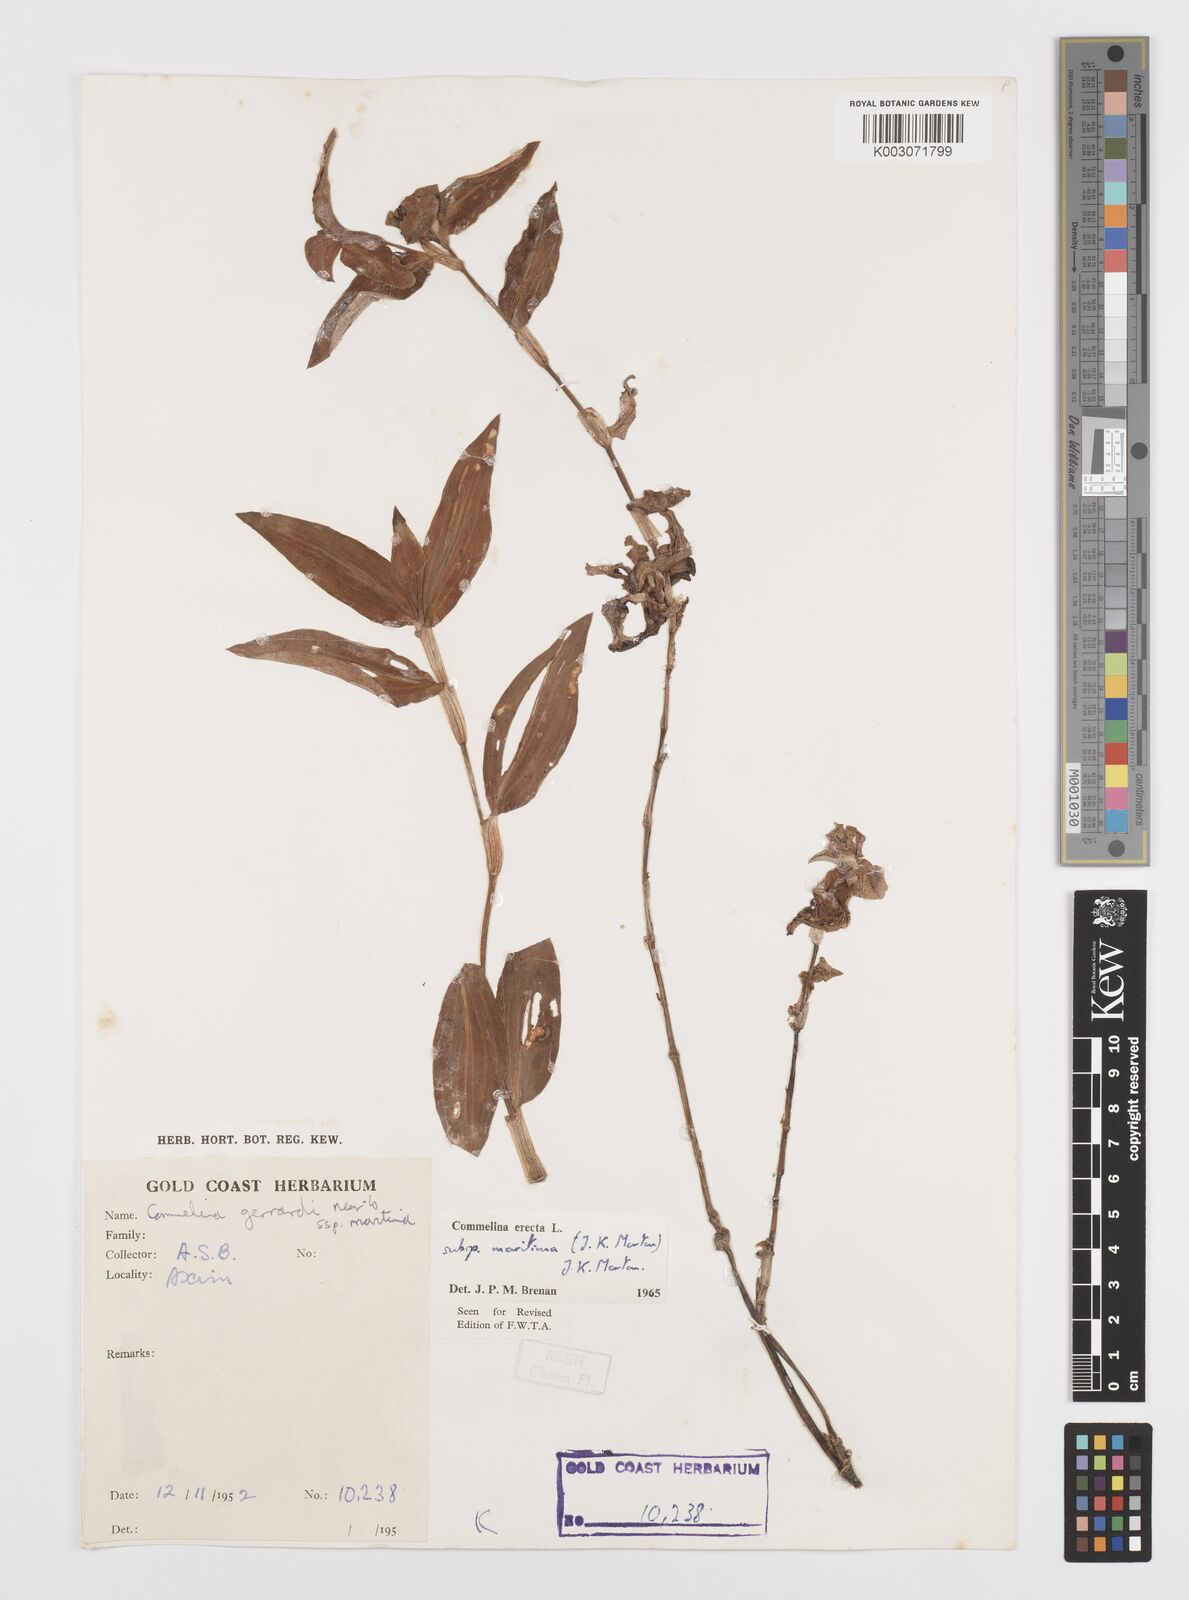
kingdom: Plantae
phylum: Tracheophyta
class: Liliopsida
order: Commelinales
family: Commelinaceae
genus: Commelina
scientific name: Commelina erecta
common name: Blousel blommetjie
